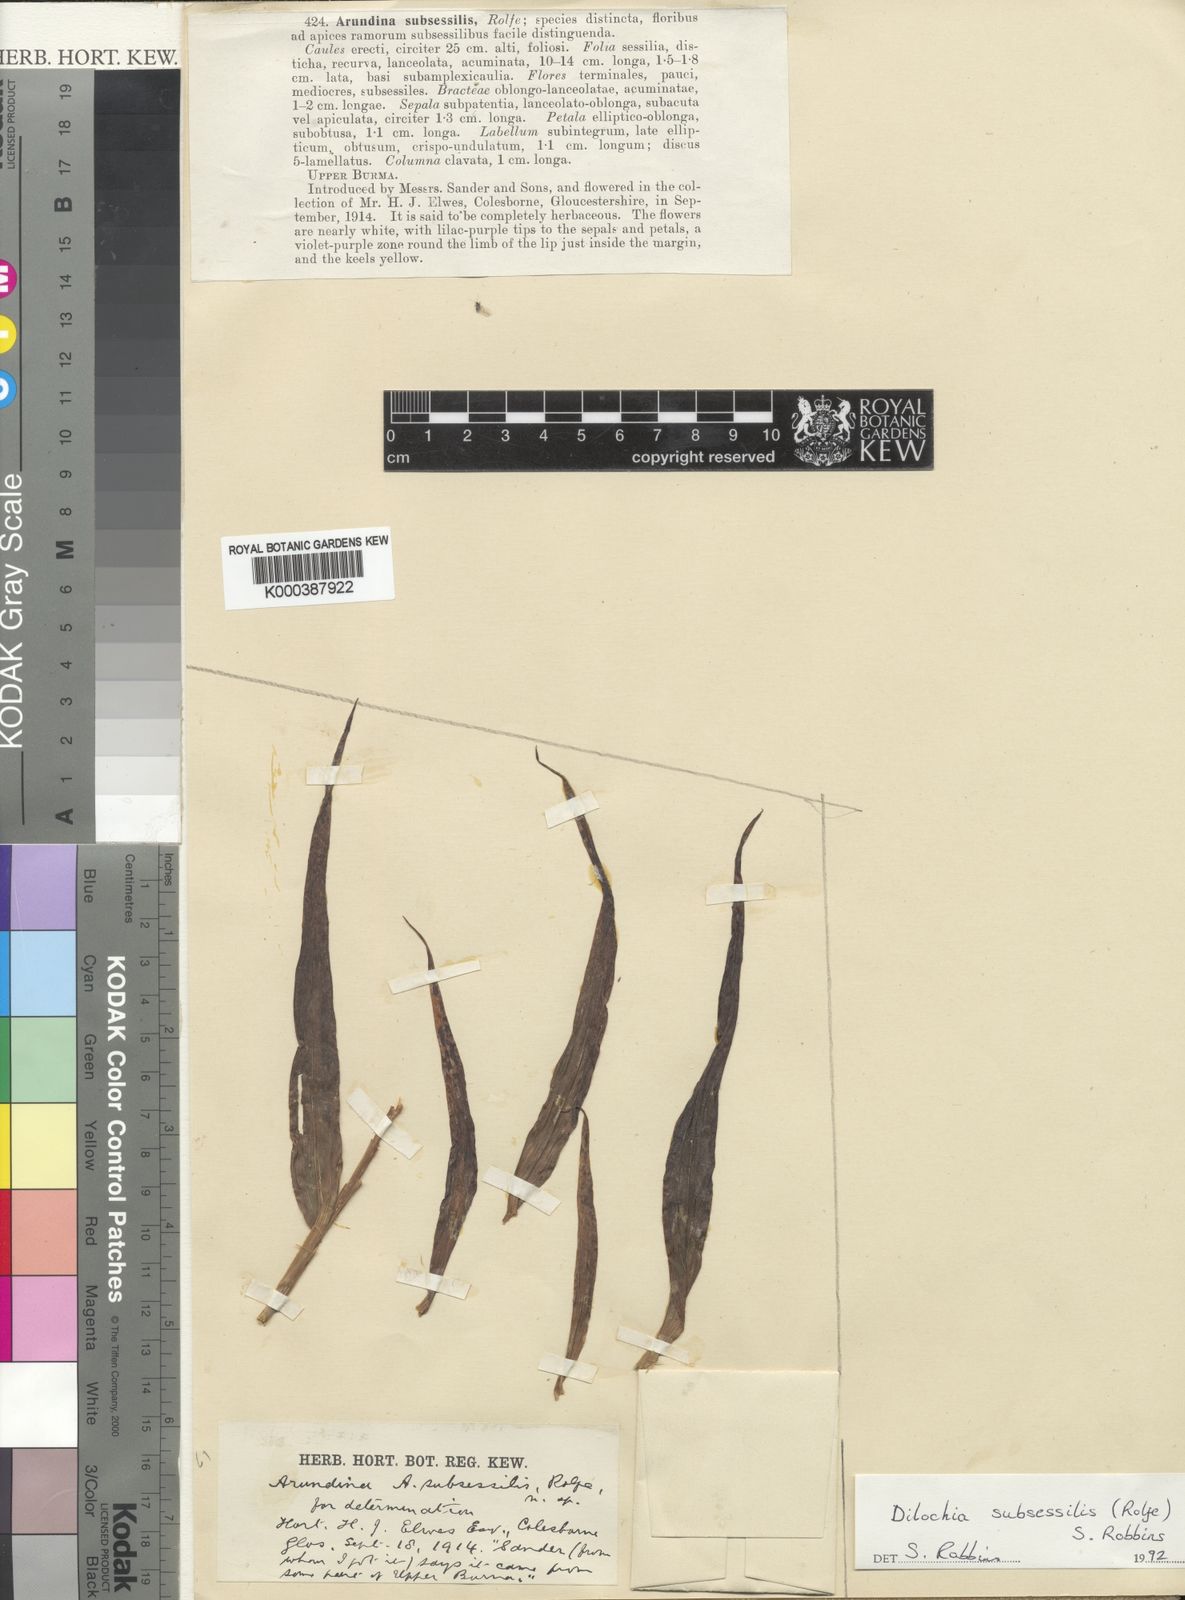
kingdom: Plantae
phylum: Tracheophyta
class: Liliopsida
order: Asparagales
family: Orchidaceae
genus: Thuniopsis
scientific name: Thuniopsis subsessilis
